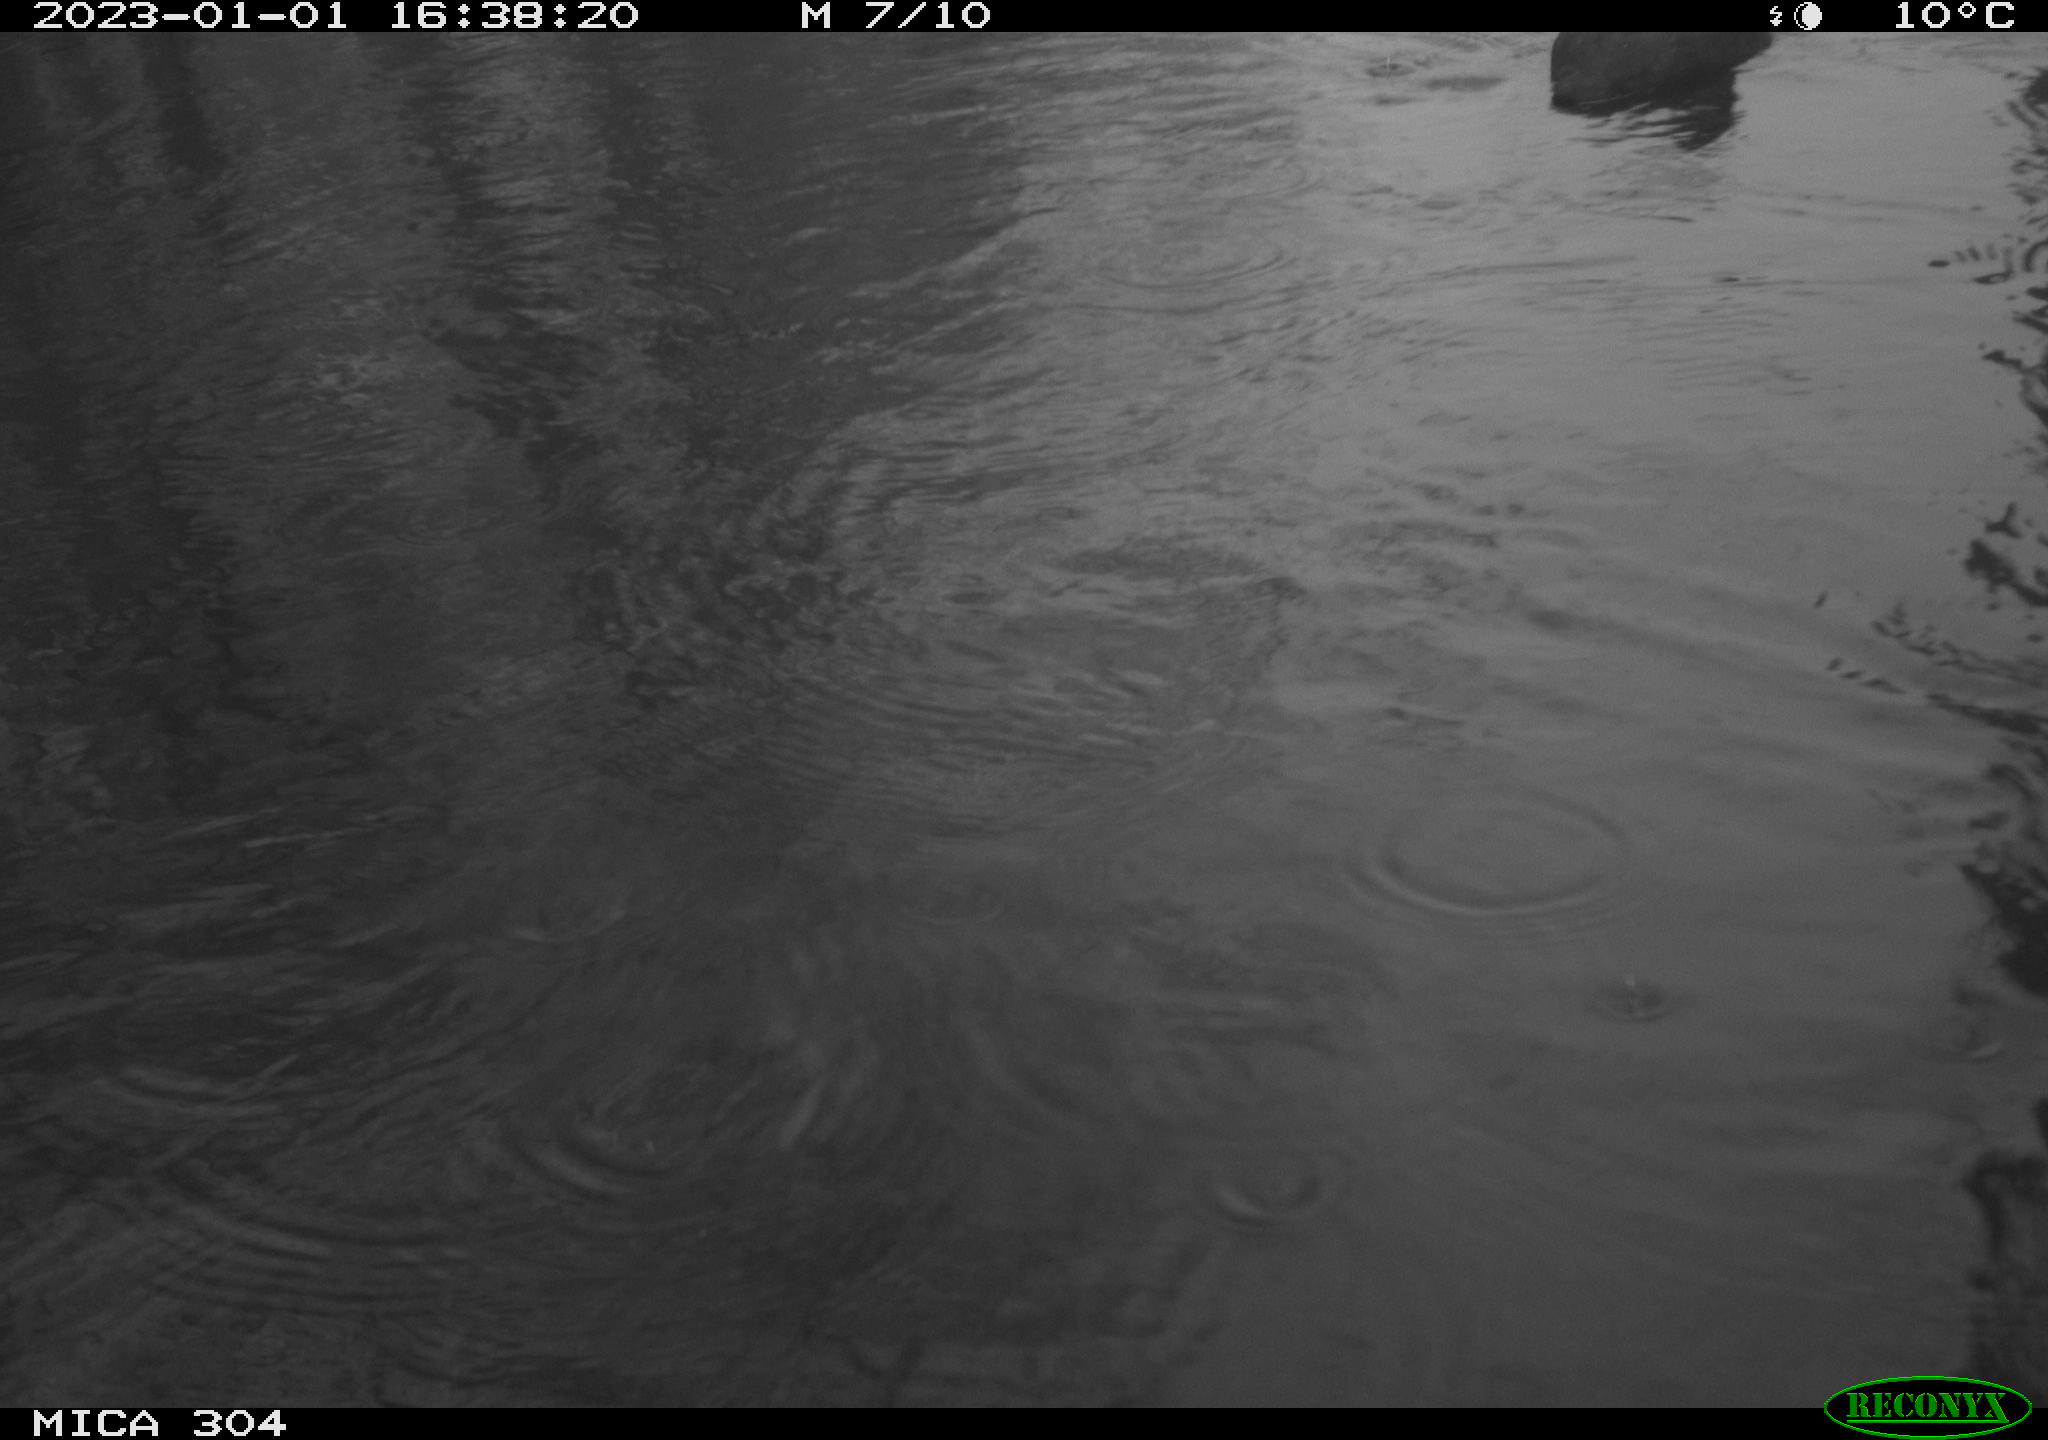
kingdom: Animalia
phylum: Chordata
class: Aves
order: Anseriformes
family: Anatidae
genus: Anas
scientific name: Anas
